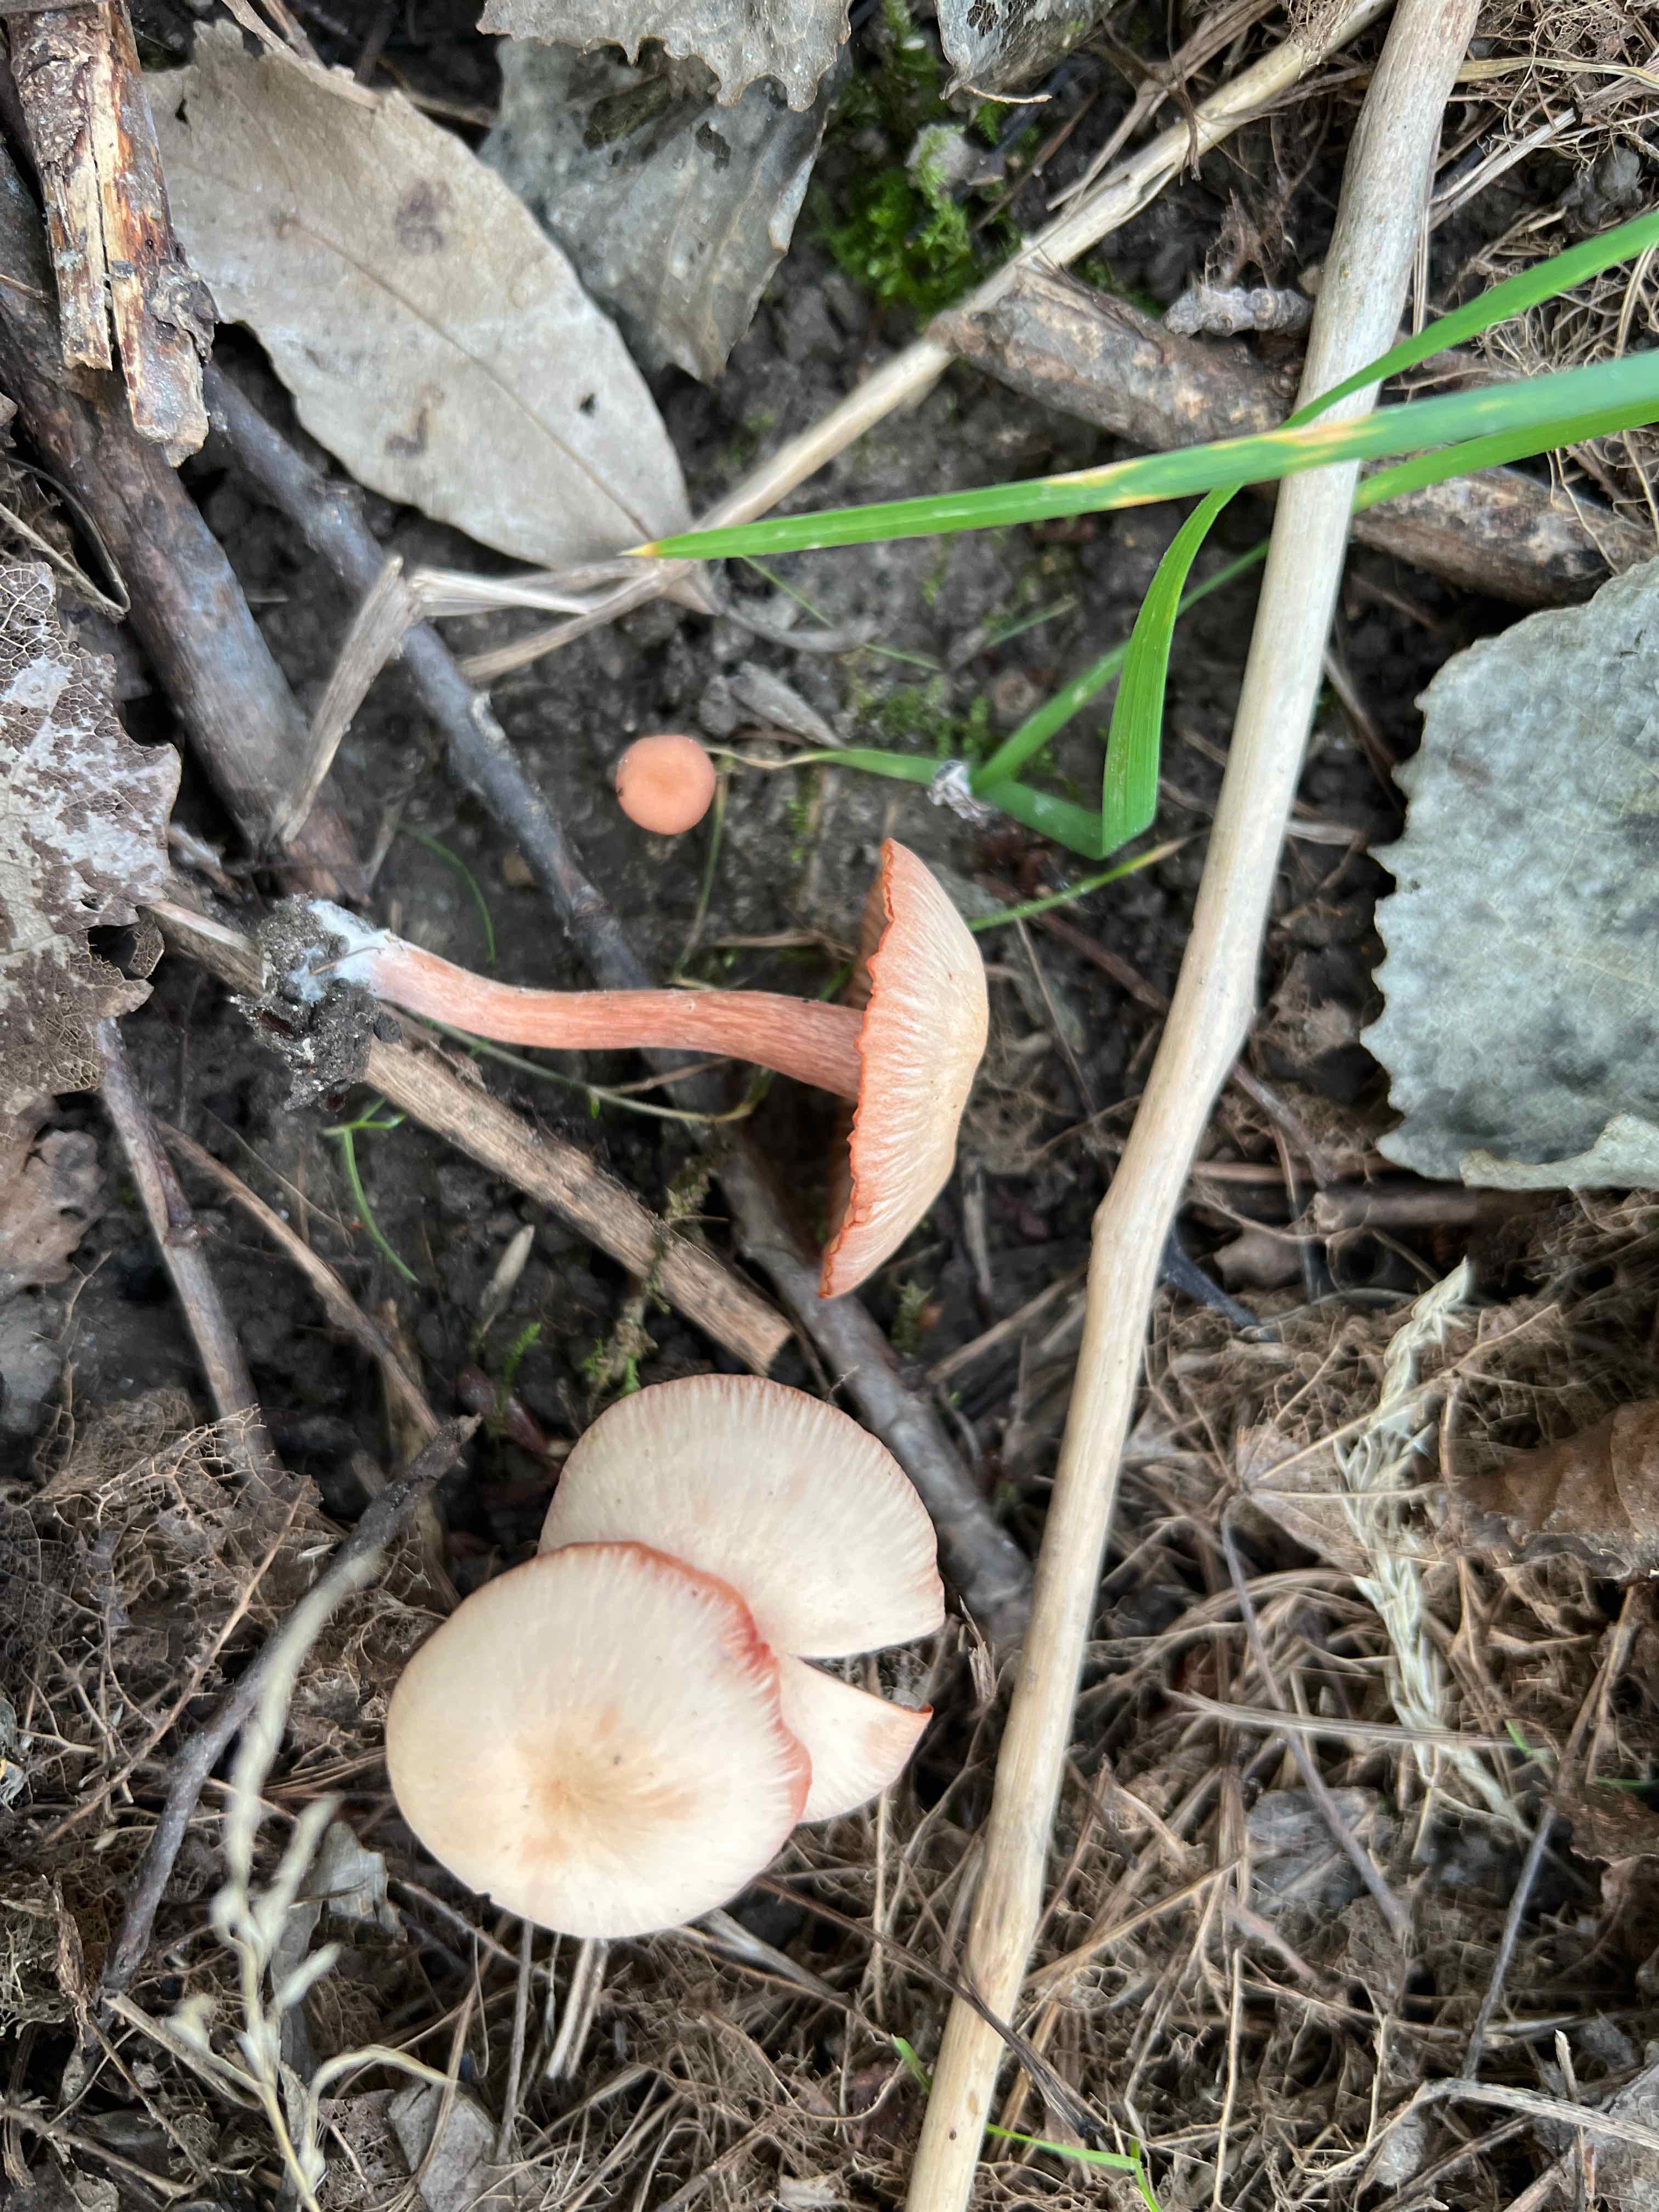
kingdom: Fungi
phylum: Basidiomycota
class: Agaricomycetes
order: Agaricales
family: Hydnangiaceae
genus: Laccaria
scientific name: Laccaria laccata
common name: rød ametysthat
